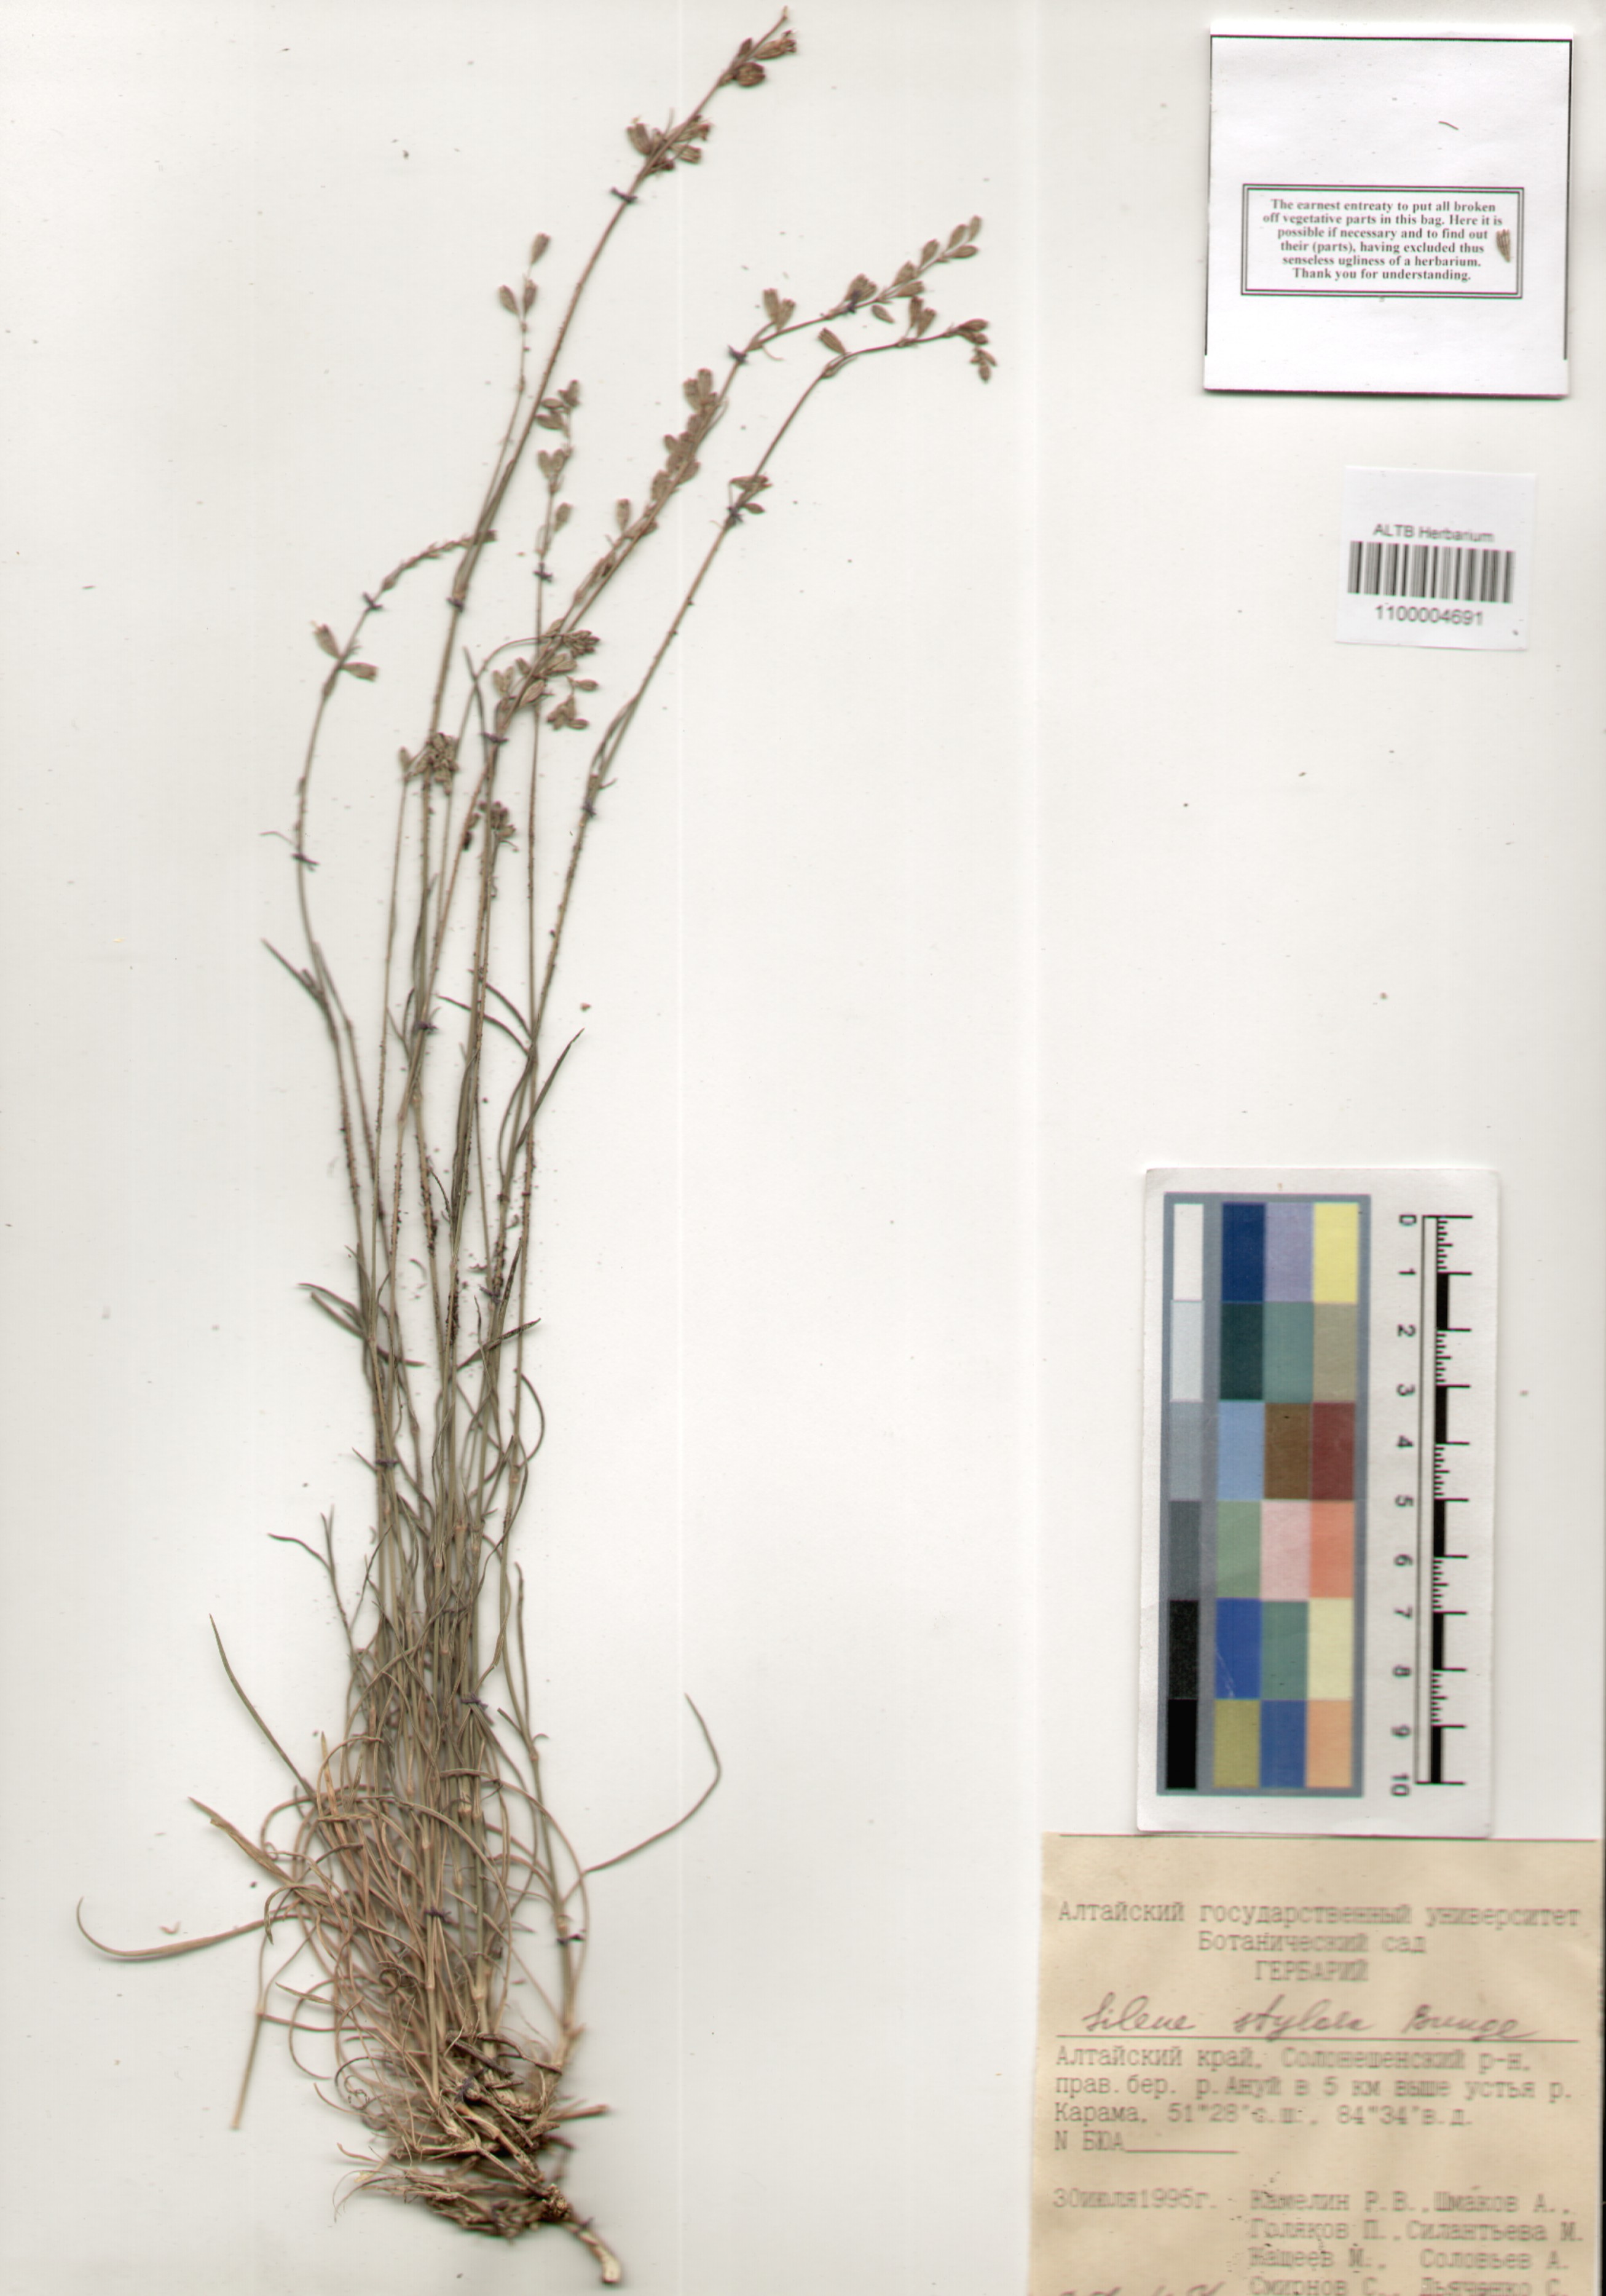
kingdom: Plantae
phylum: Tracheophyta
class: Magnoliopsida
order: Caryophyllales
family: Caryophyllaceae
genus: Silene
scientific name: Silene graminifolia
